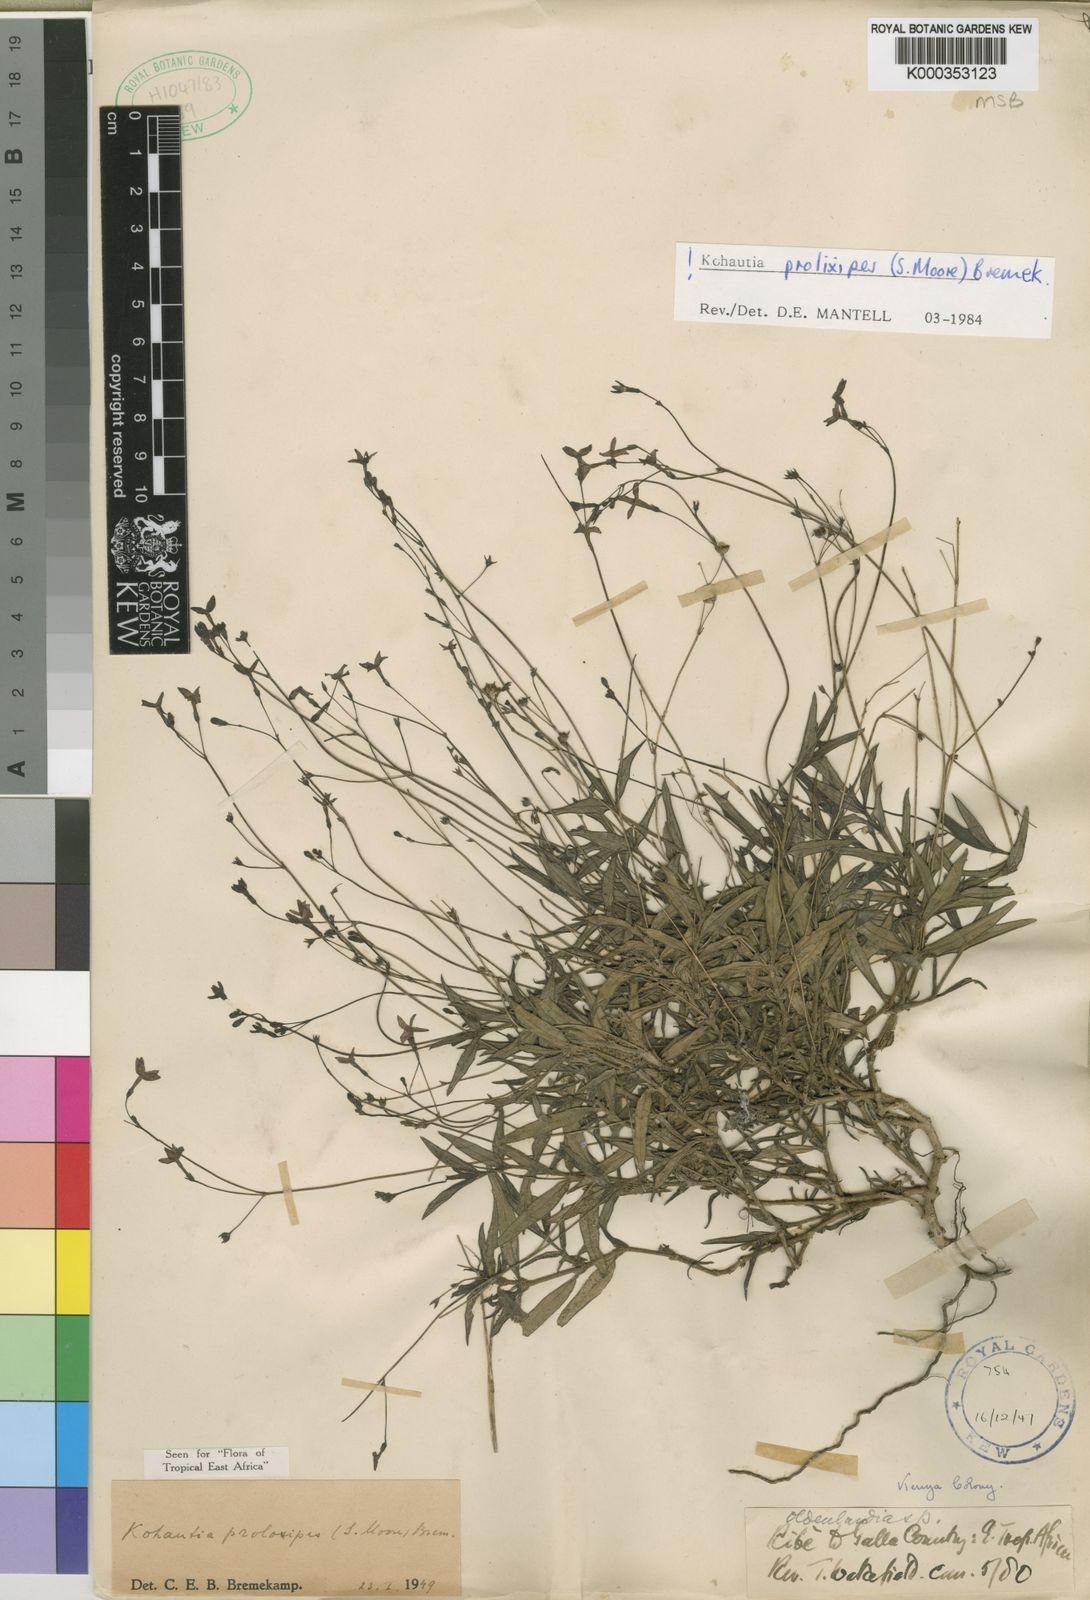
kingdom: Plantae
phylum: Tracheophyta
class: Magnoliopsida
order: Gentianales
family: Rubiaceae
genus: Cordylostigma
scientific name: Cordylostigma prolixipes
